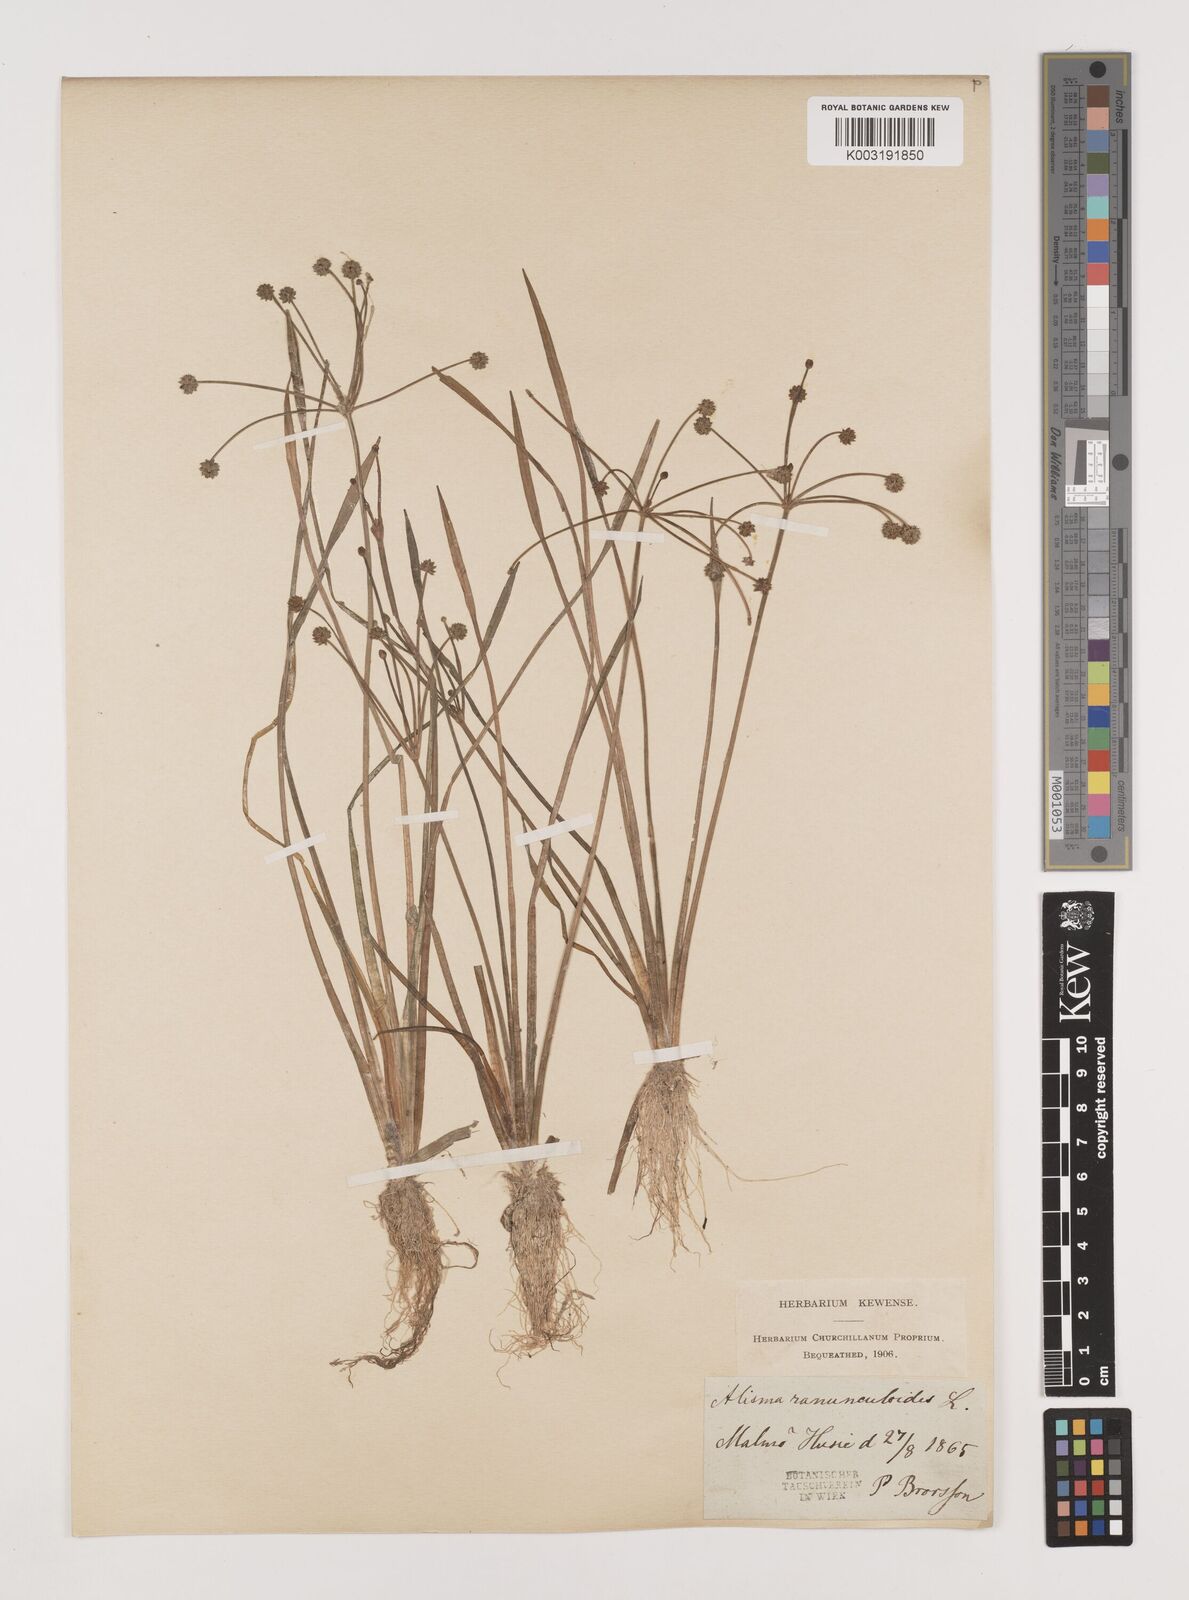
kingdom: Plantae
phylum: Tracheophyta
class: Liliopsida
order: Alismatales
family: Alismataceae
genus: Baldellia
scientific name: Baldellia ranunculoides
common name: Lesser water-plantain
